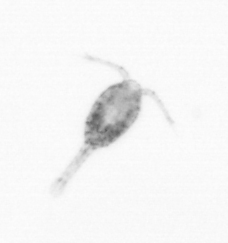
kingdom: Animalia
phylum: Arthropoda
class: Copepoda
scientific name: Copepoda
